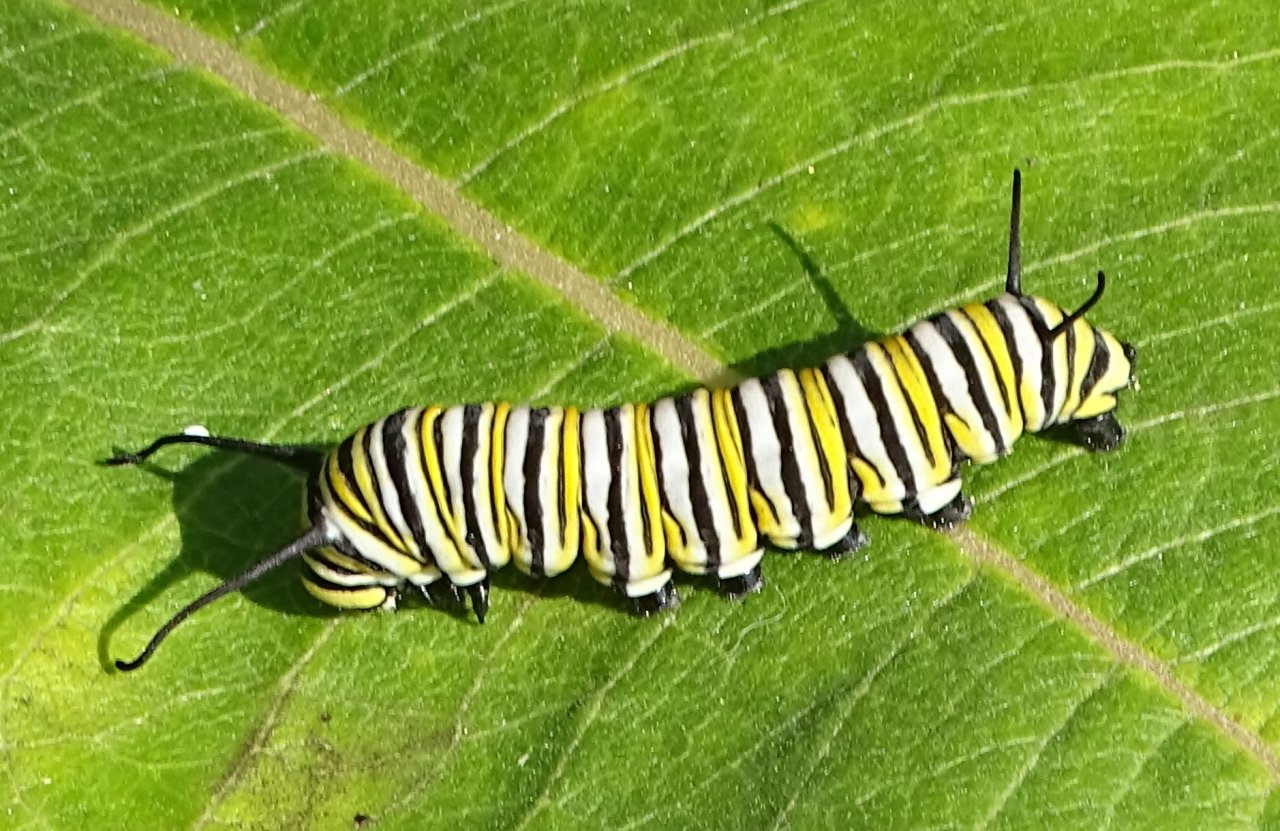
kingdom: Animalia
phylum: Arthropoda
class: Insecta
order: Lepidoptera
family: Nymphalidae
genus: Danaus
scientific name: Danaus plexippus
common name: Monarch
